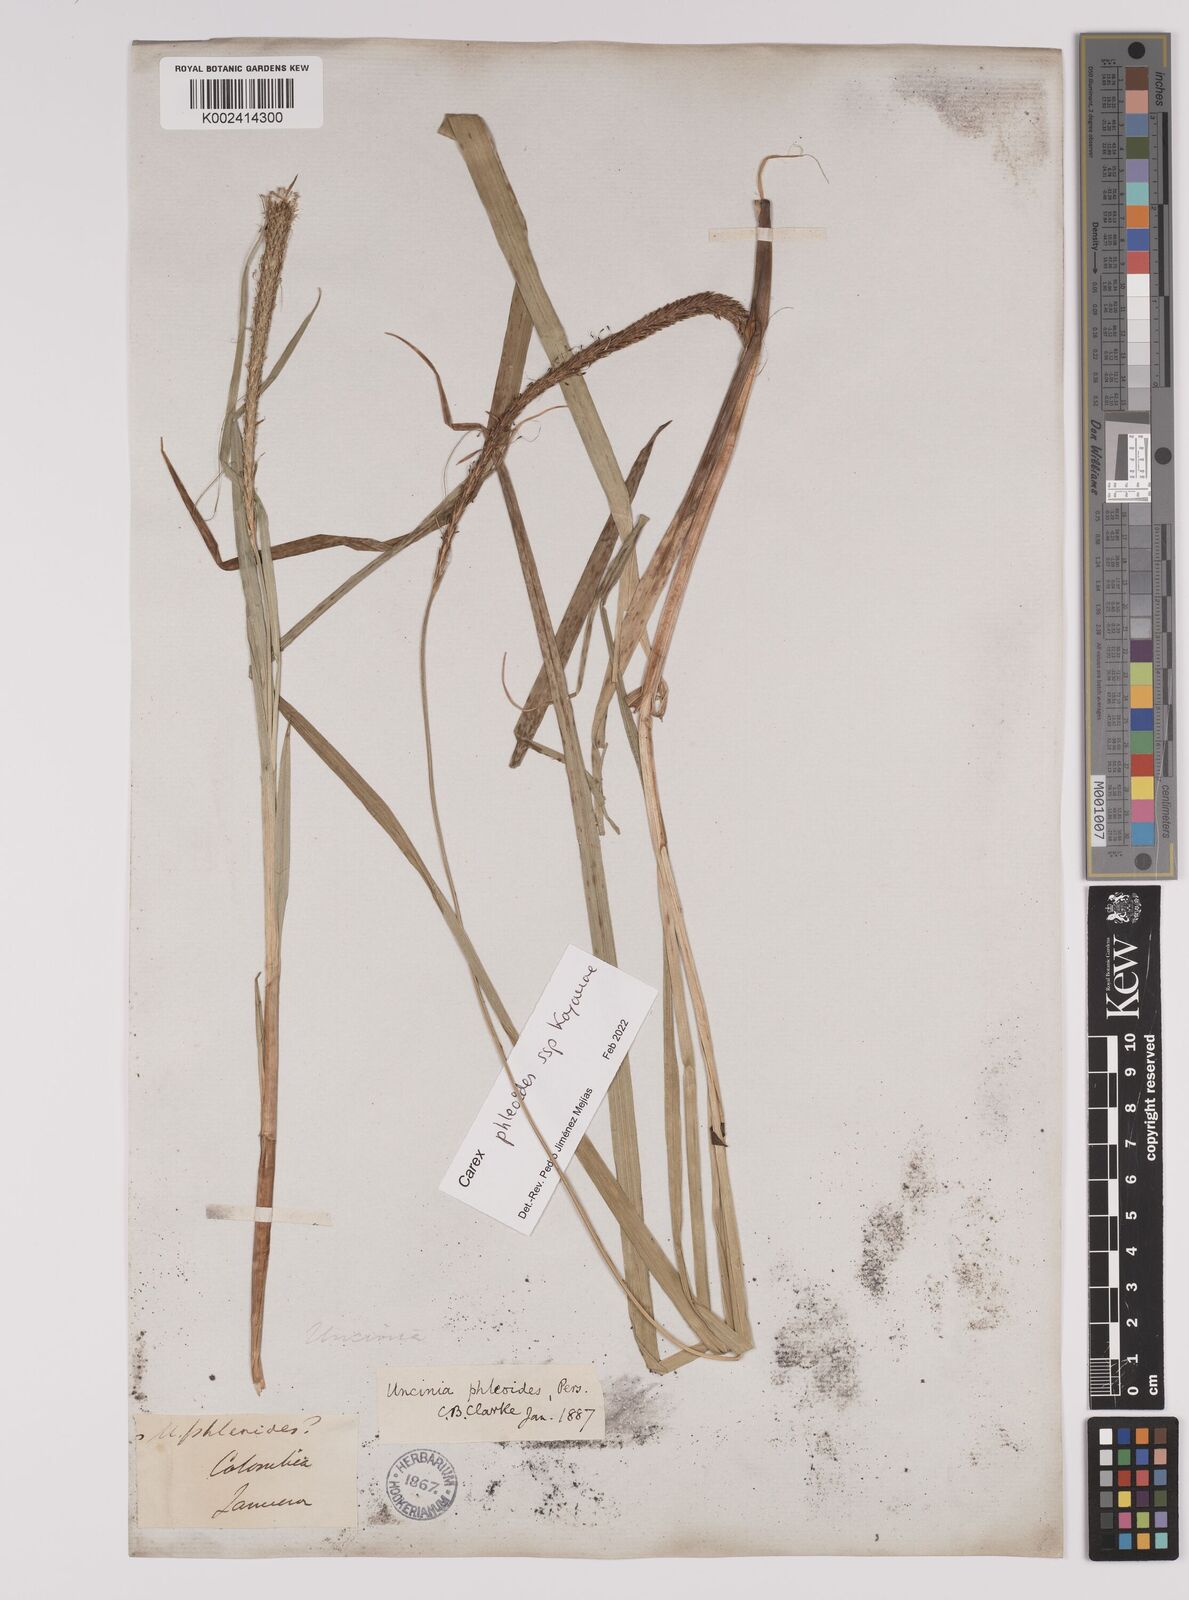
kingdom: Plantae
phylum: Tracheophyta
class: Liliopsida
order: Poales
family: Cyperaceae
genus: Carex
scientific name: Carex phleoides
